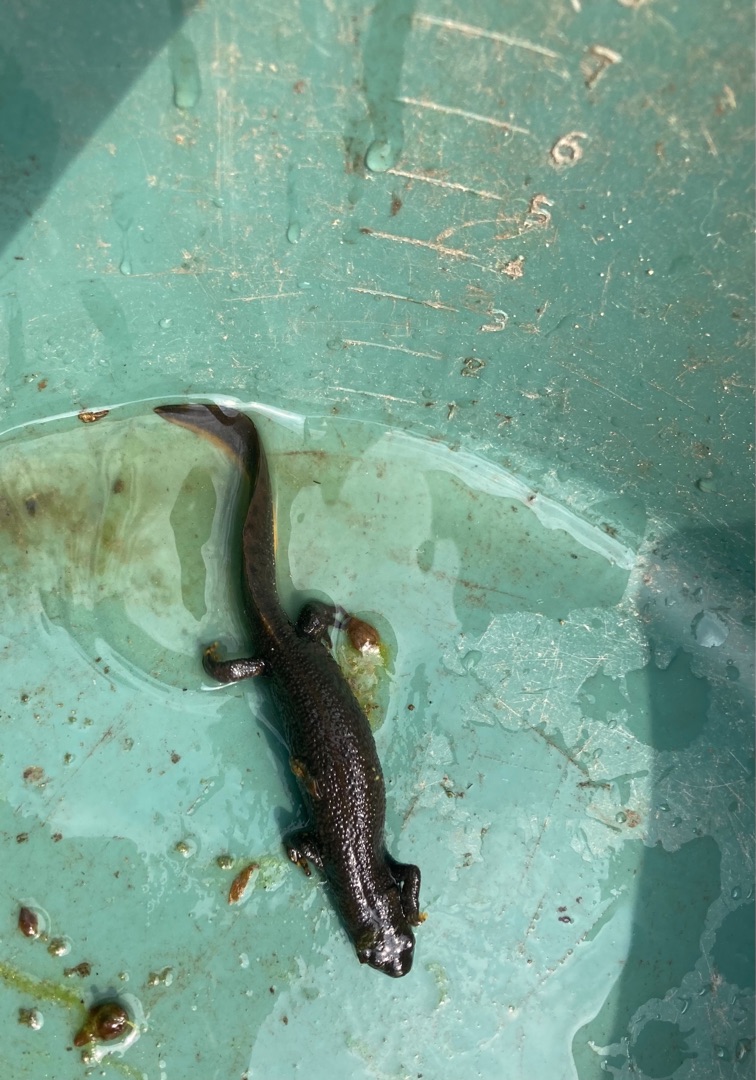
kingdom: Animalia
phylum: Chordata
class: Amphibia
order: Caudata
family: Salamandridae
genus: Triturus
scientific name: Triturus cristatus
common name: Stor vandsalamander
